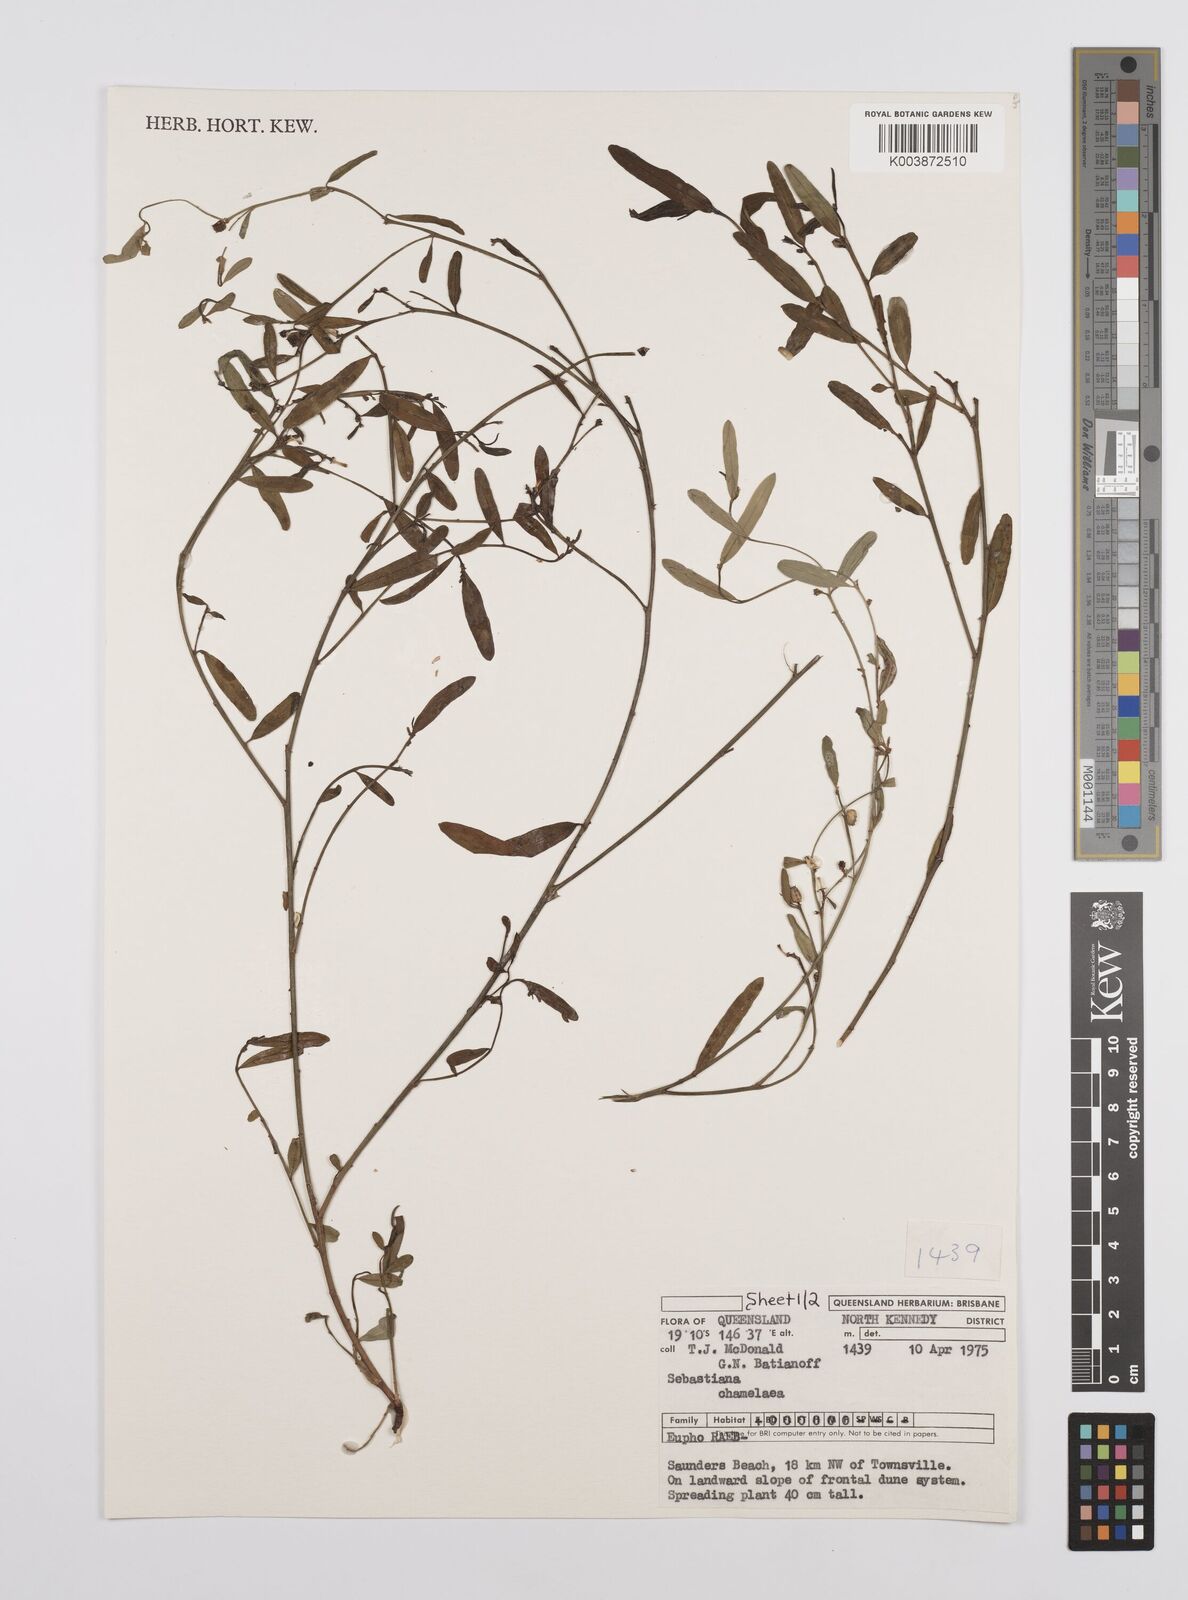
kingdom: Plantae
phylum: Tracheophyta
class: Magnoliopsida
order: Malpighiales
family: Euphorbiaceae
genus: Microstachys
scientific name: Microstachys chamaelea
